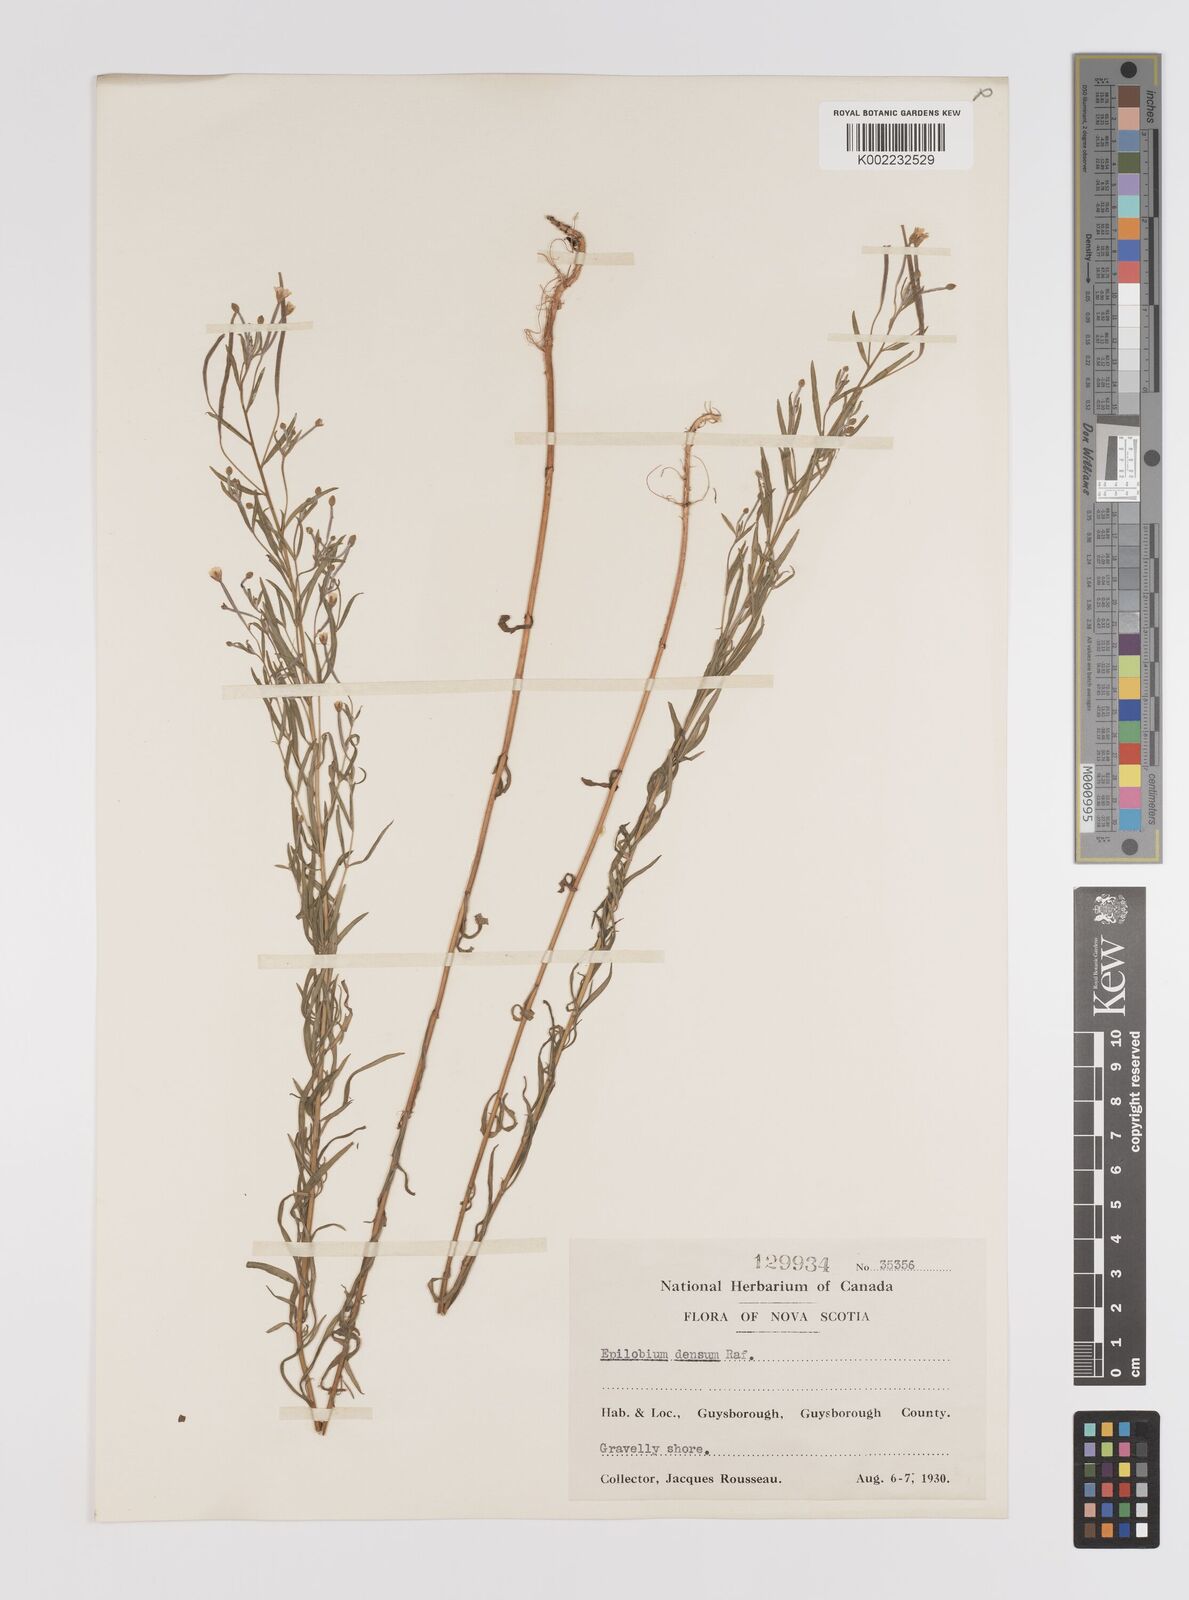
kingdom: Plantae
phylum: Tracheophyta
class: Magnoliopsida
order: Myrtales
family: Onagraceae
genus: Epilobium
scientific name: Epilobium
